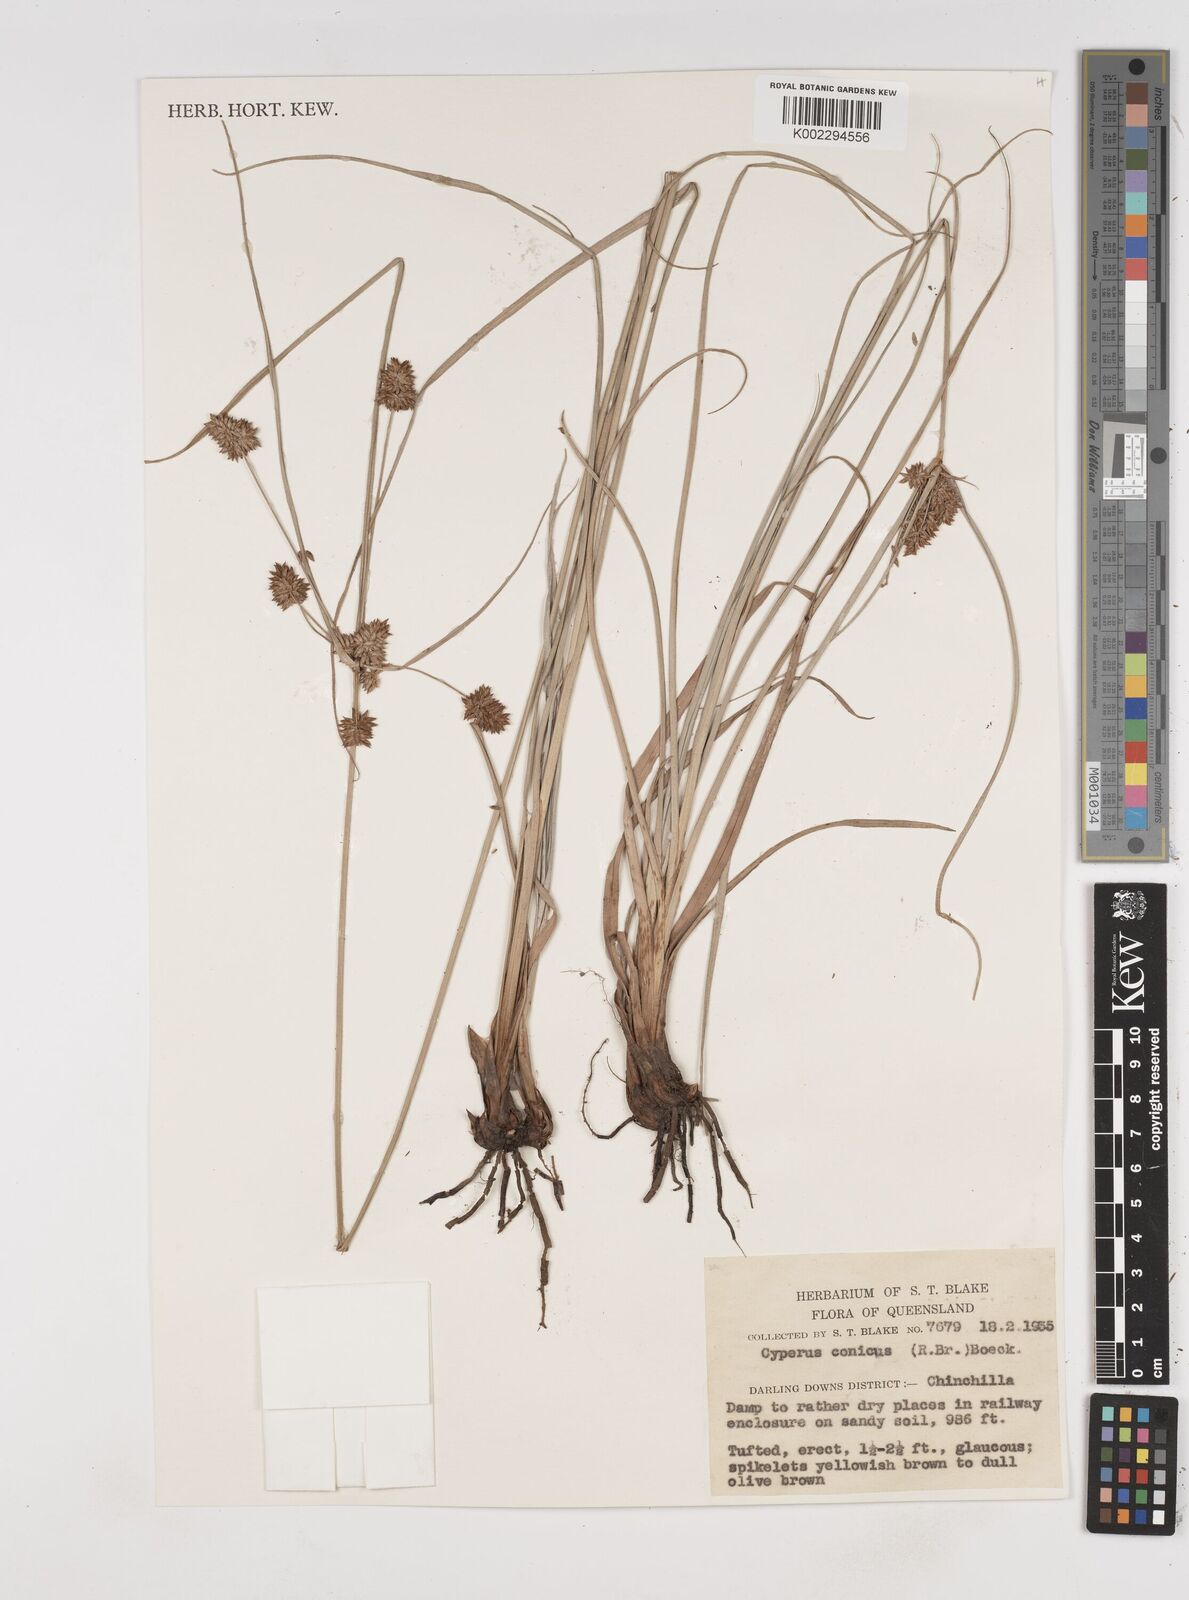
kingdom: Plantae
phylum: Tracheophyta
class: Liliopsida
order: Poales
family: Cyperaceae
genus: Cyperus
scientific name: Cyperus conicus
